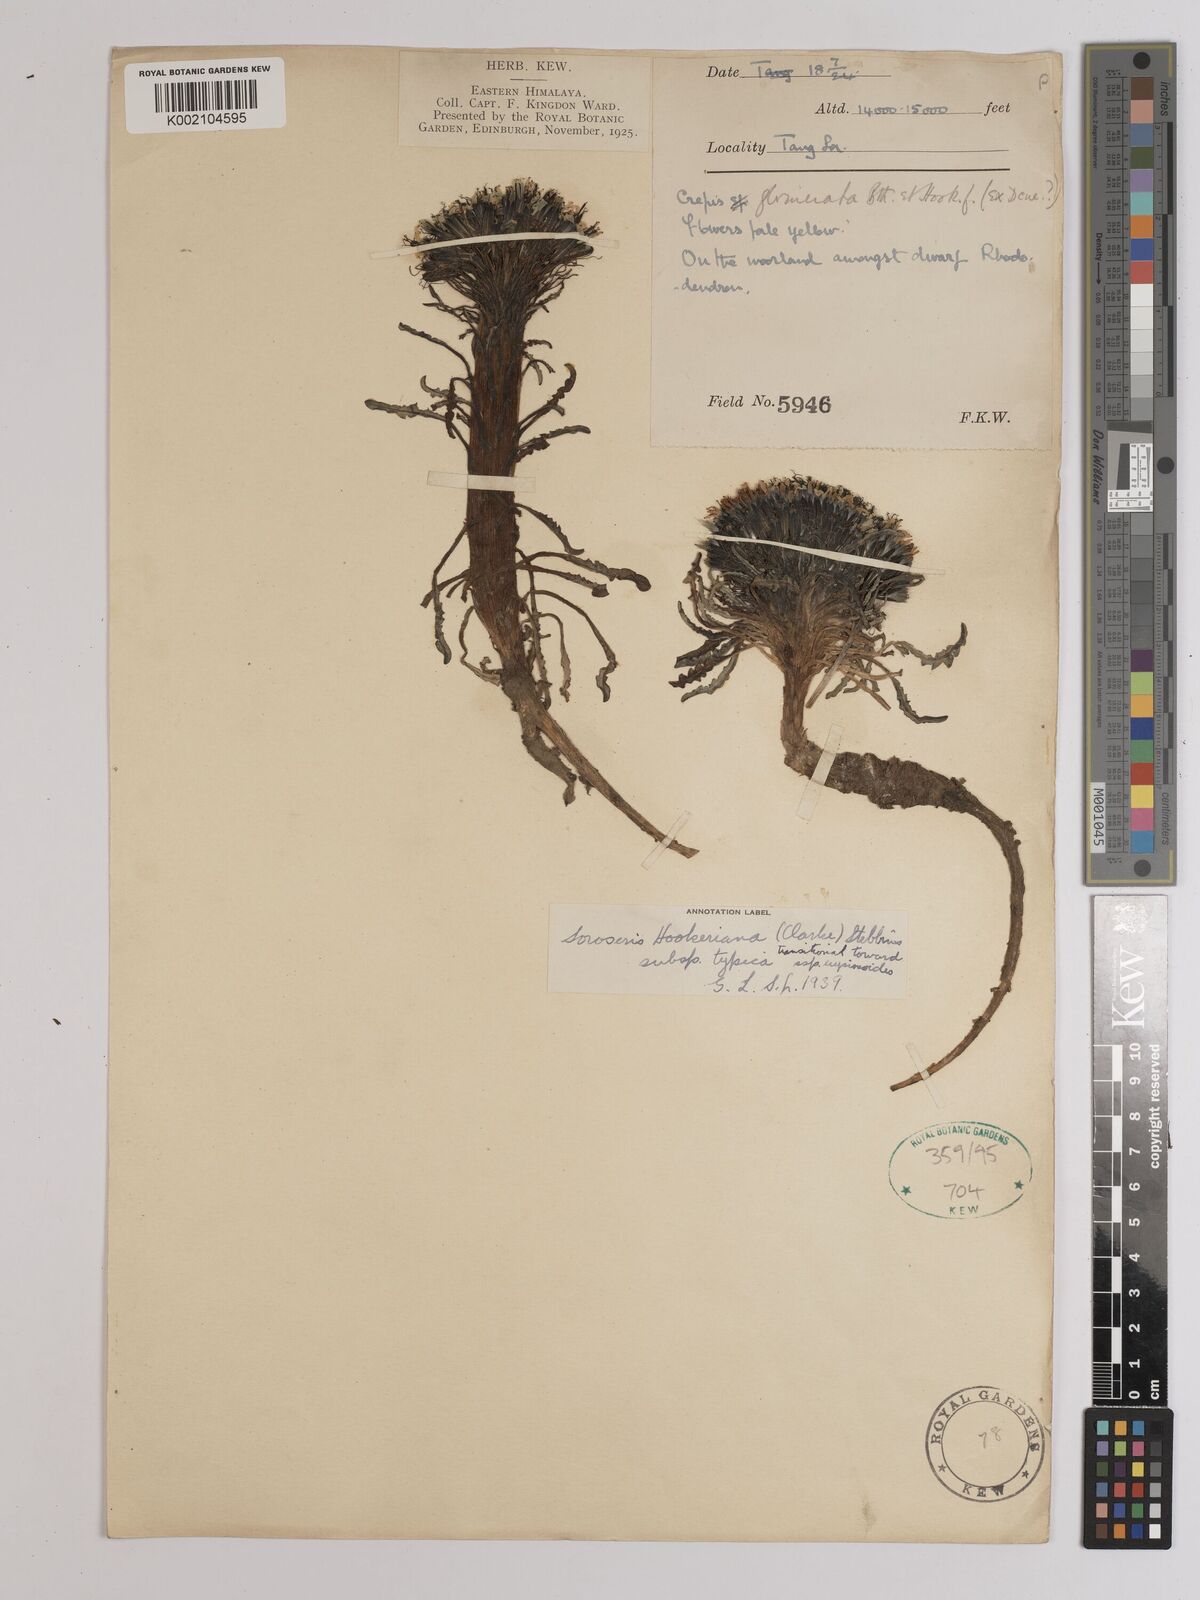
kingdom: Plantae
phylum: Tracheophyta
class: Magnoliopsida
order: Asterales
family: Asteraceae
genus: Soroseris
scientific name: Soroseris hookeriana
